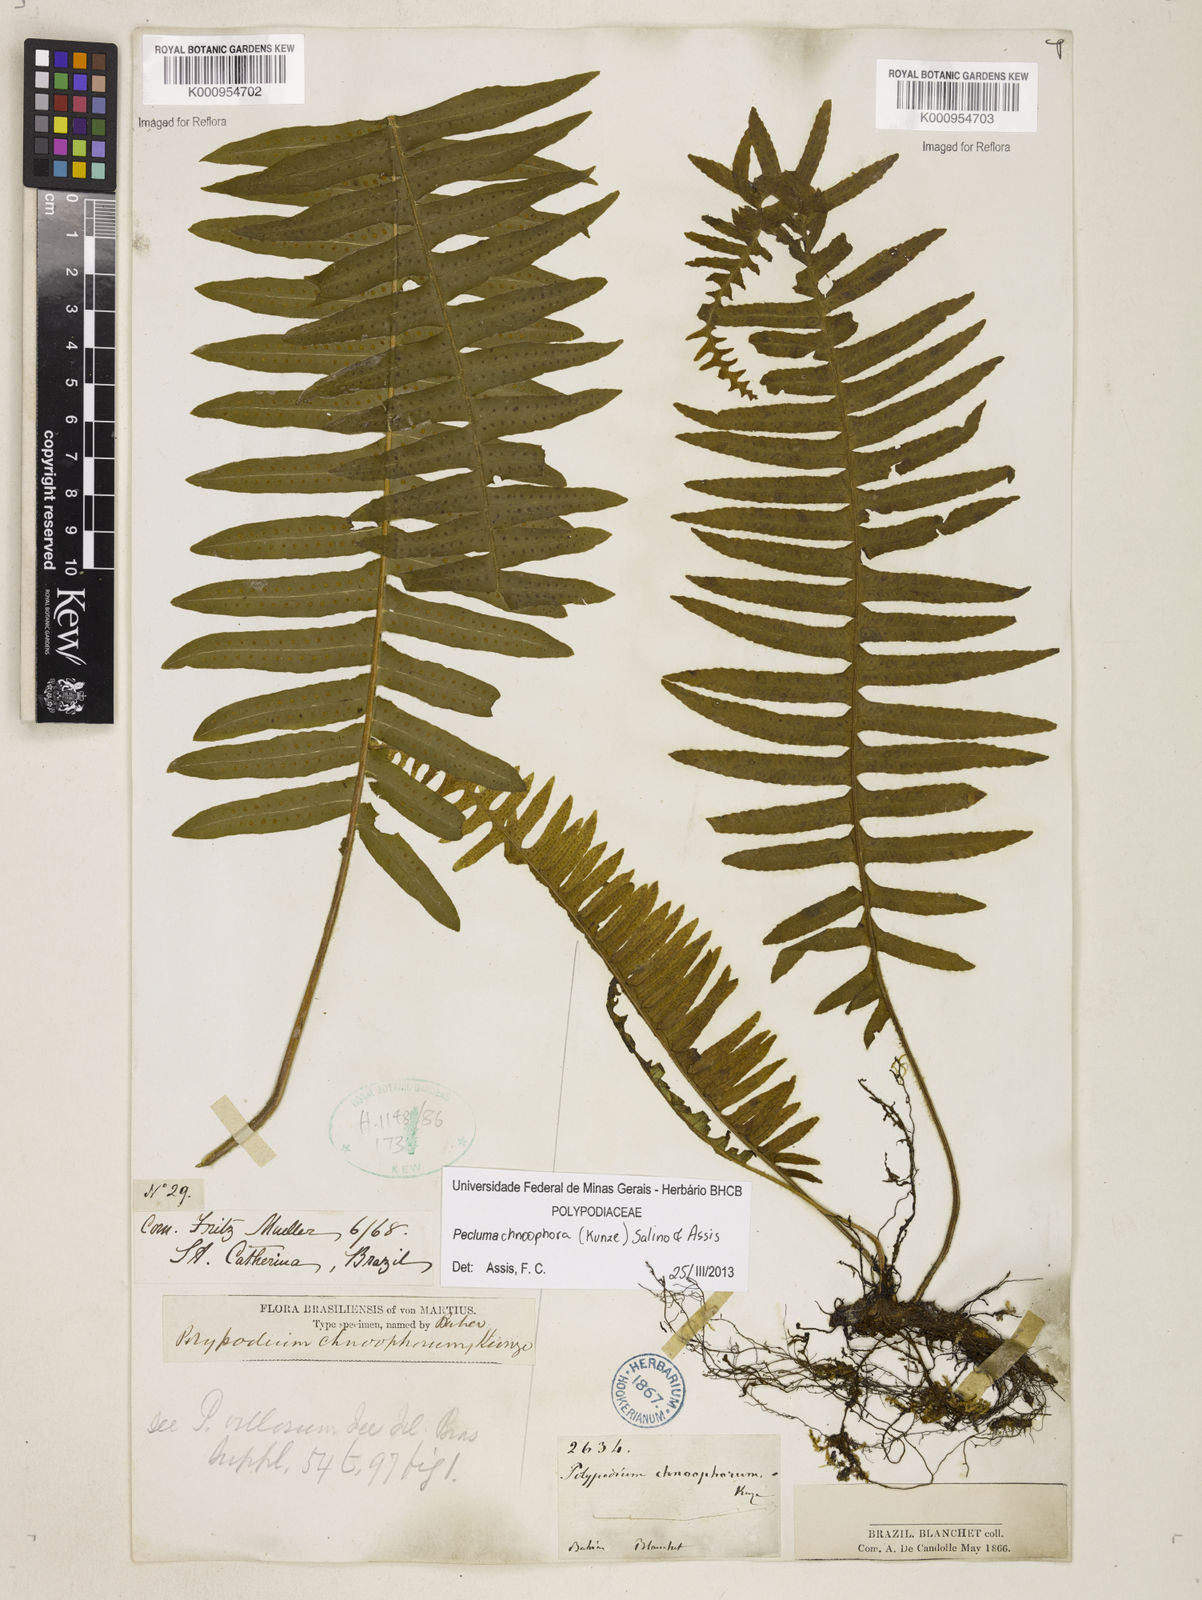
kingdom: Plantae
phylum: Tracheophyta
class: Polypodiopsida
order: Polypodiales
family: Polypodiaceae
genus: Pecluma
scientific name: Pecluma chnoophora
